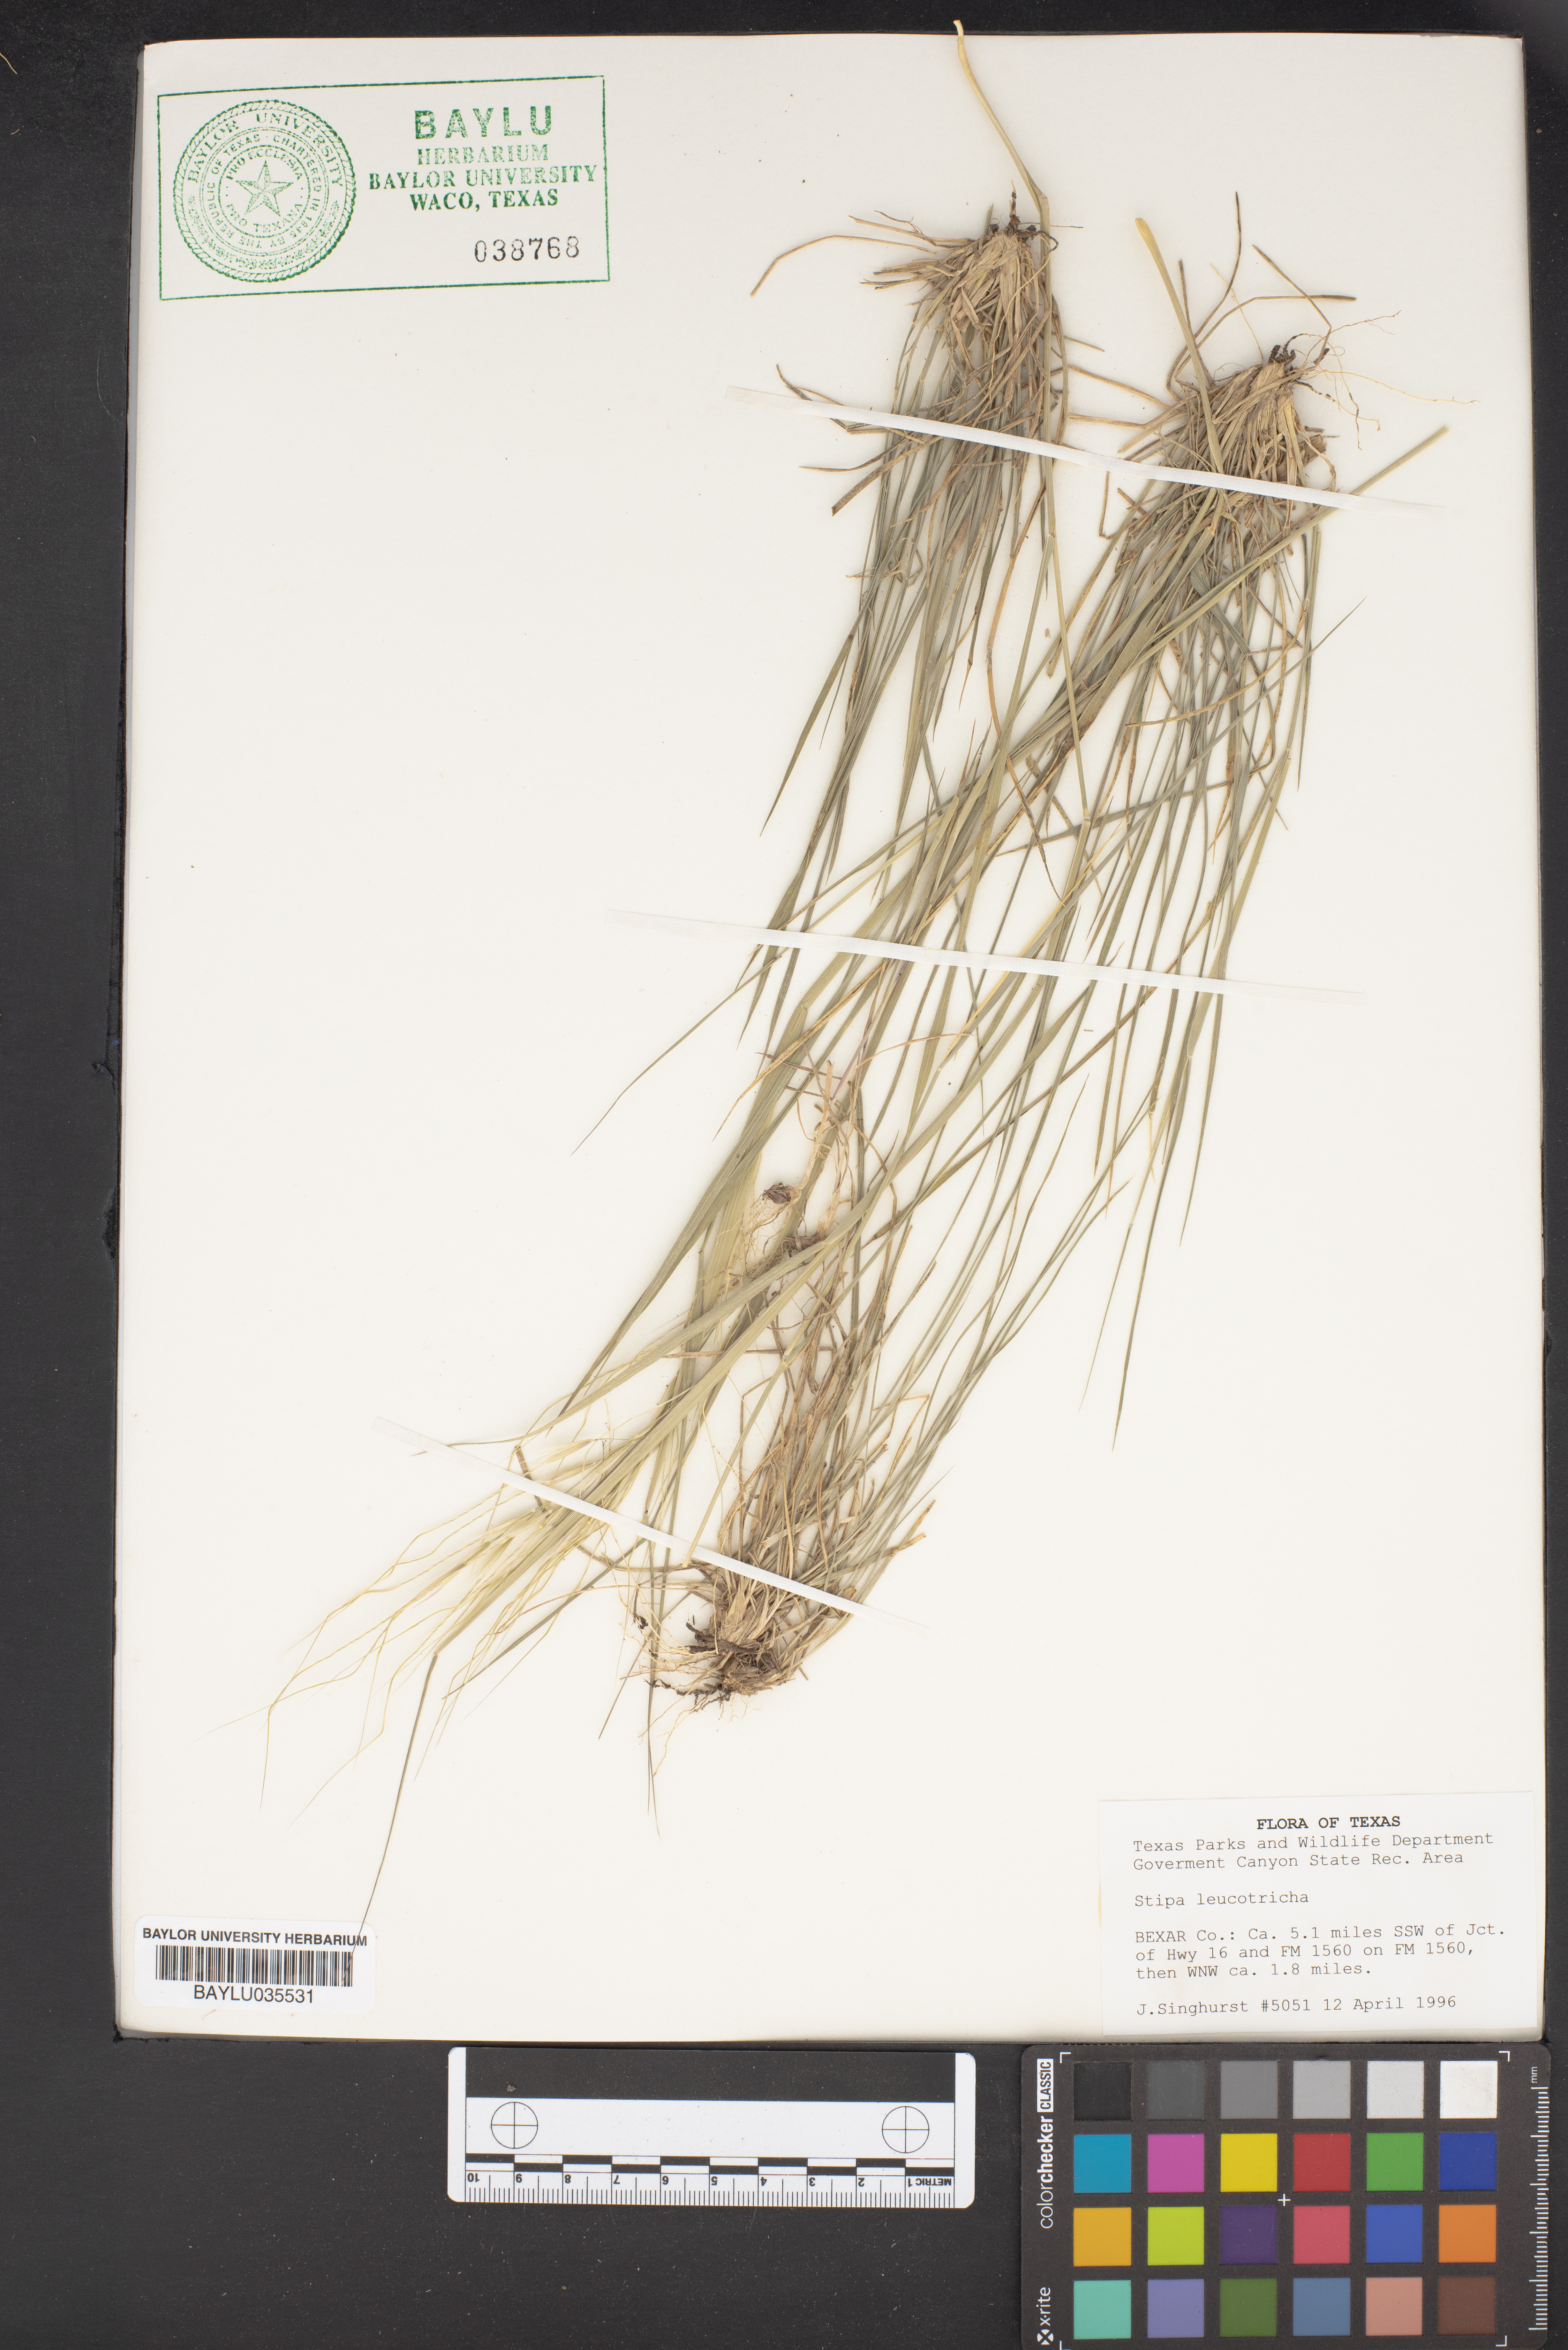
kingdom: Plantae
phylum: Tracheophyta
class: Liliopsida
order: Poales
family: Poaceae
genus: Nassella
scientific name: Nassella leucotricha
